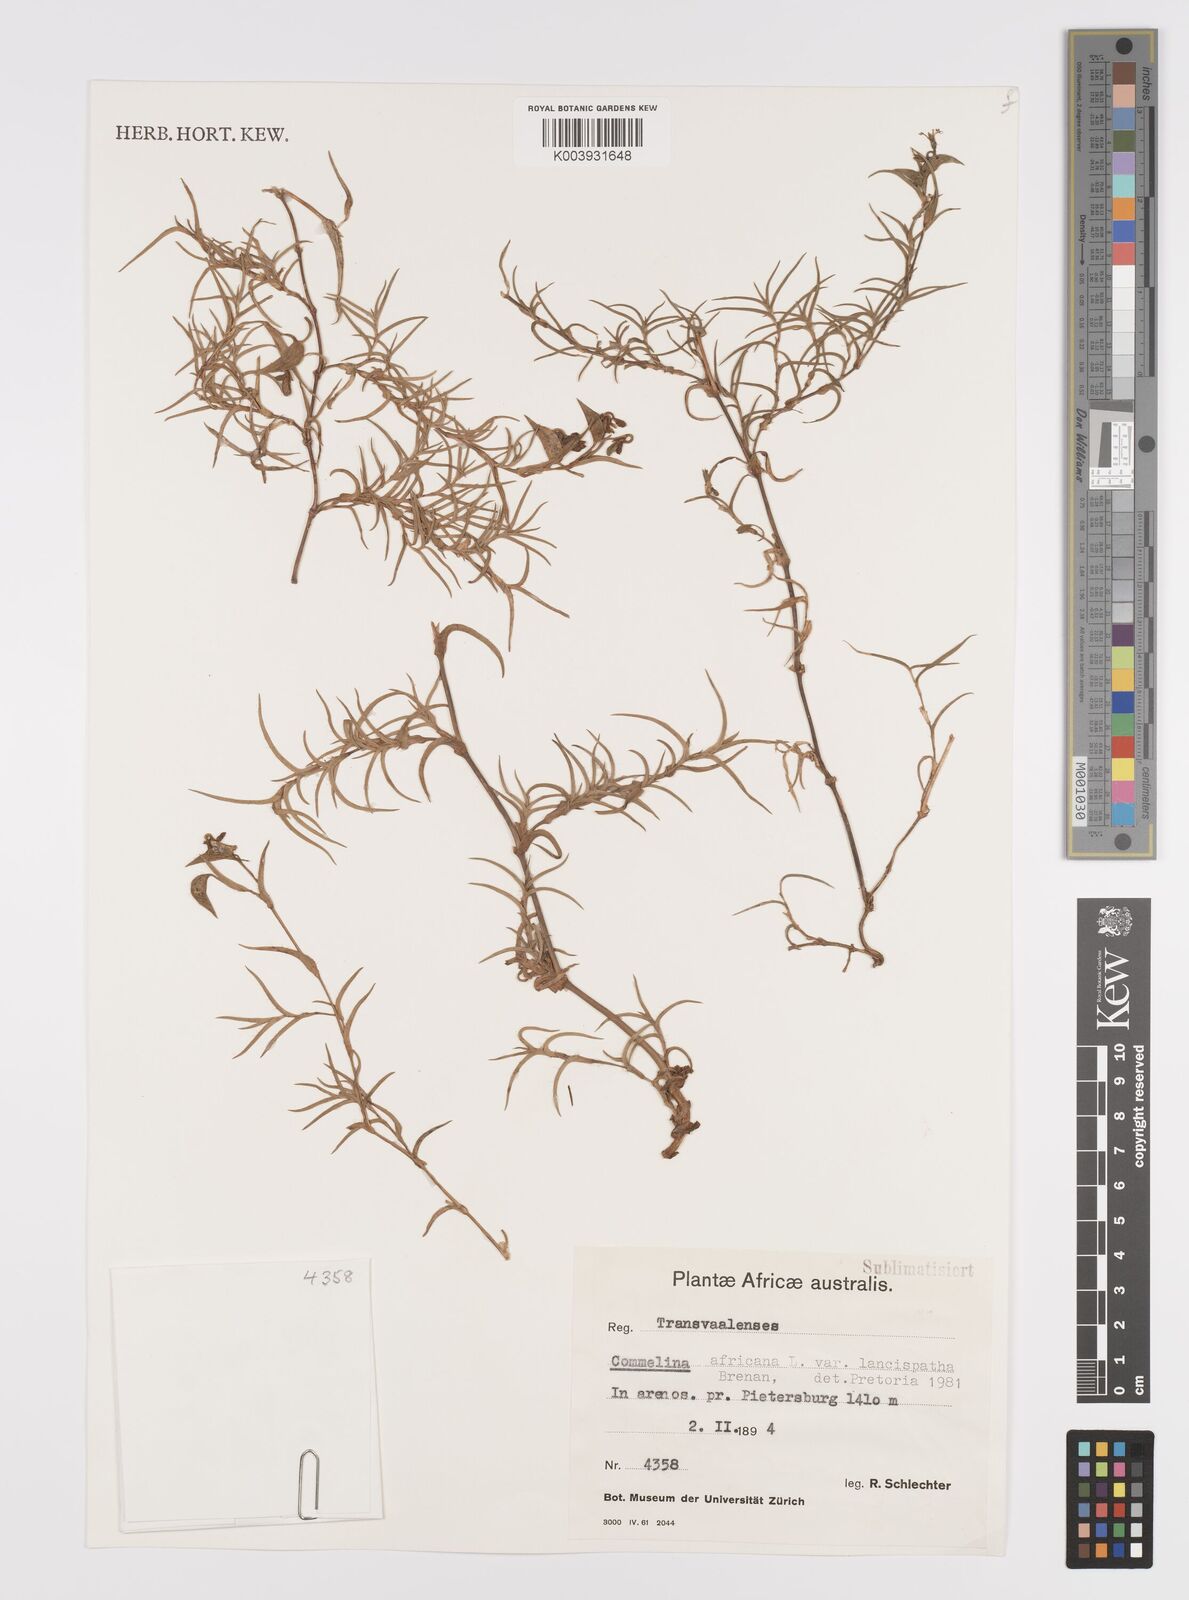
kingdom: Plantae
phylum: Tracheophyta
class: Liliopsida
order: Commelinales
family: Commelinaceae
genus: Commelina
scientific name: Commelina africana
